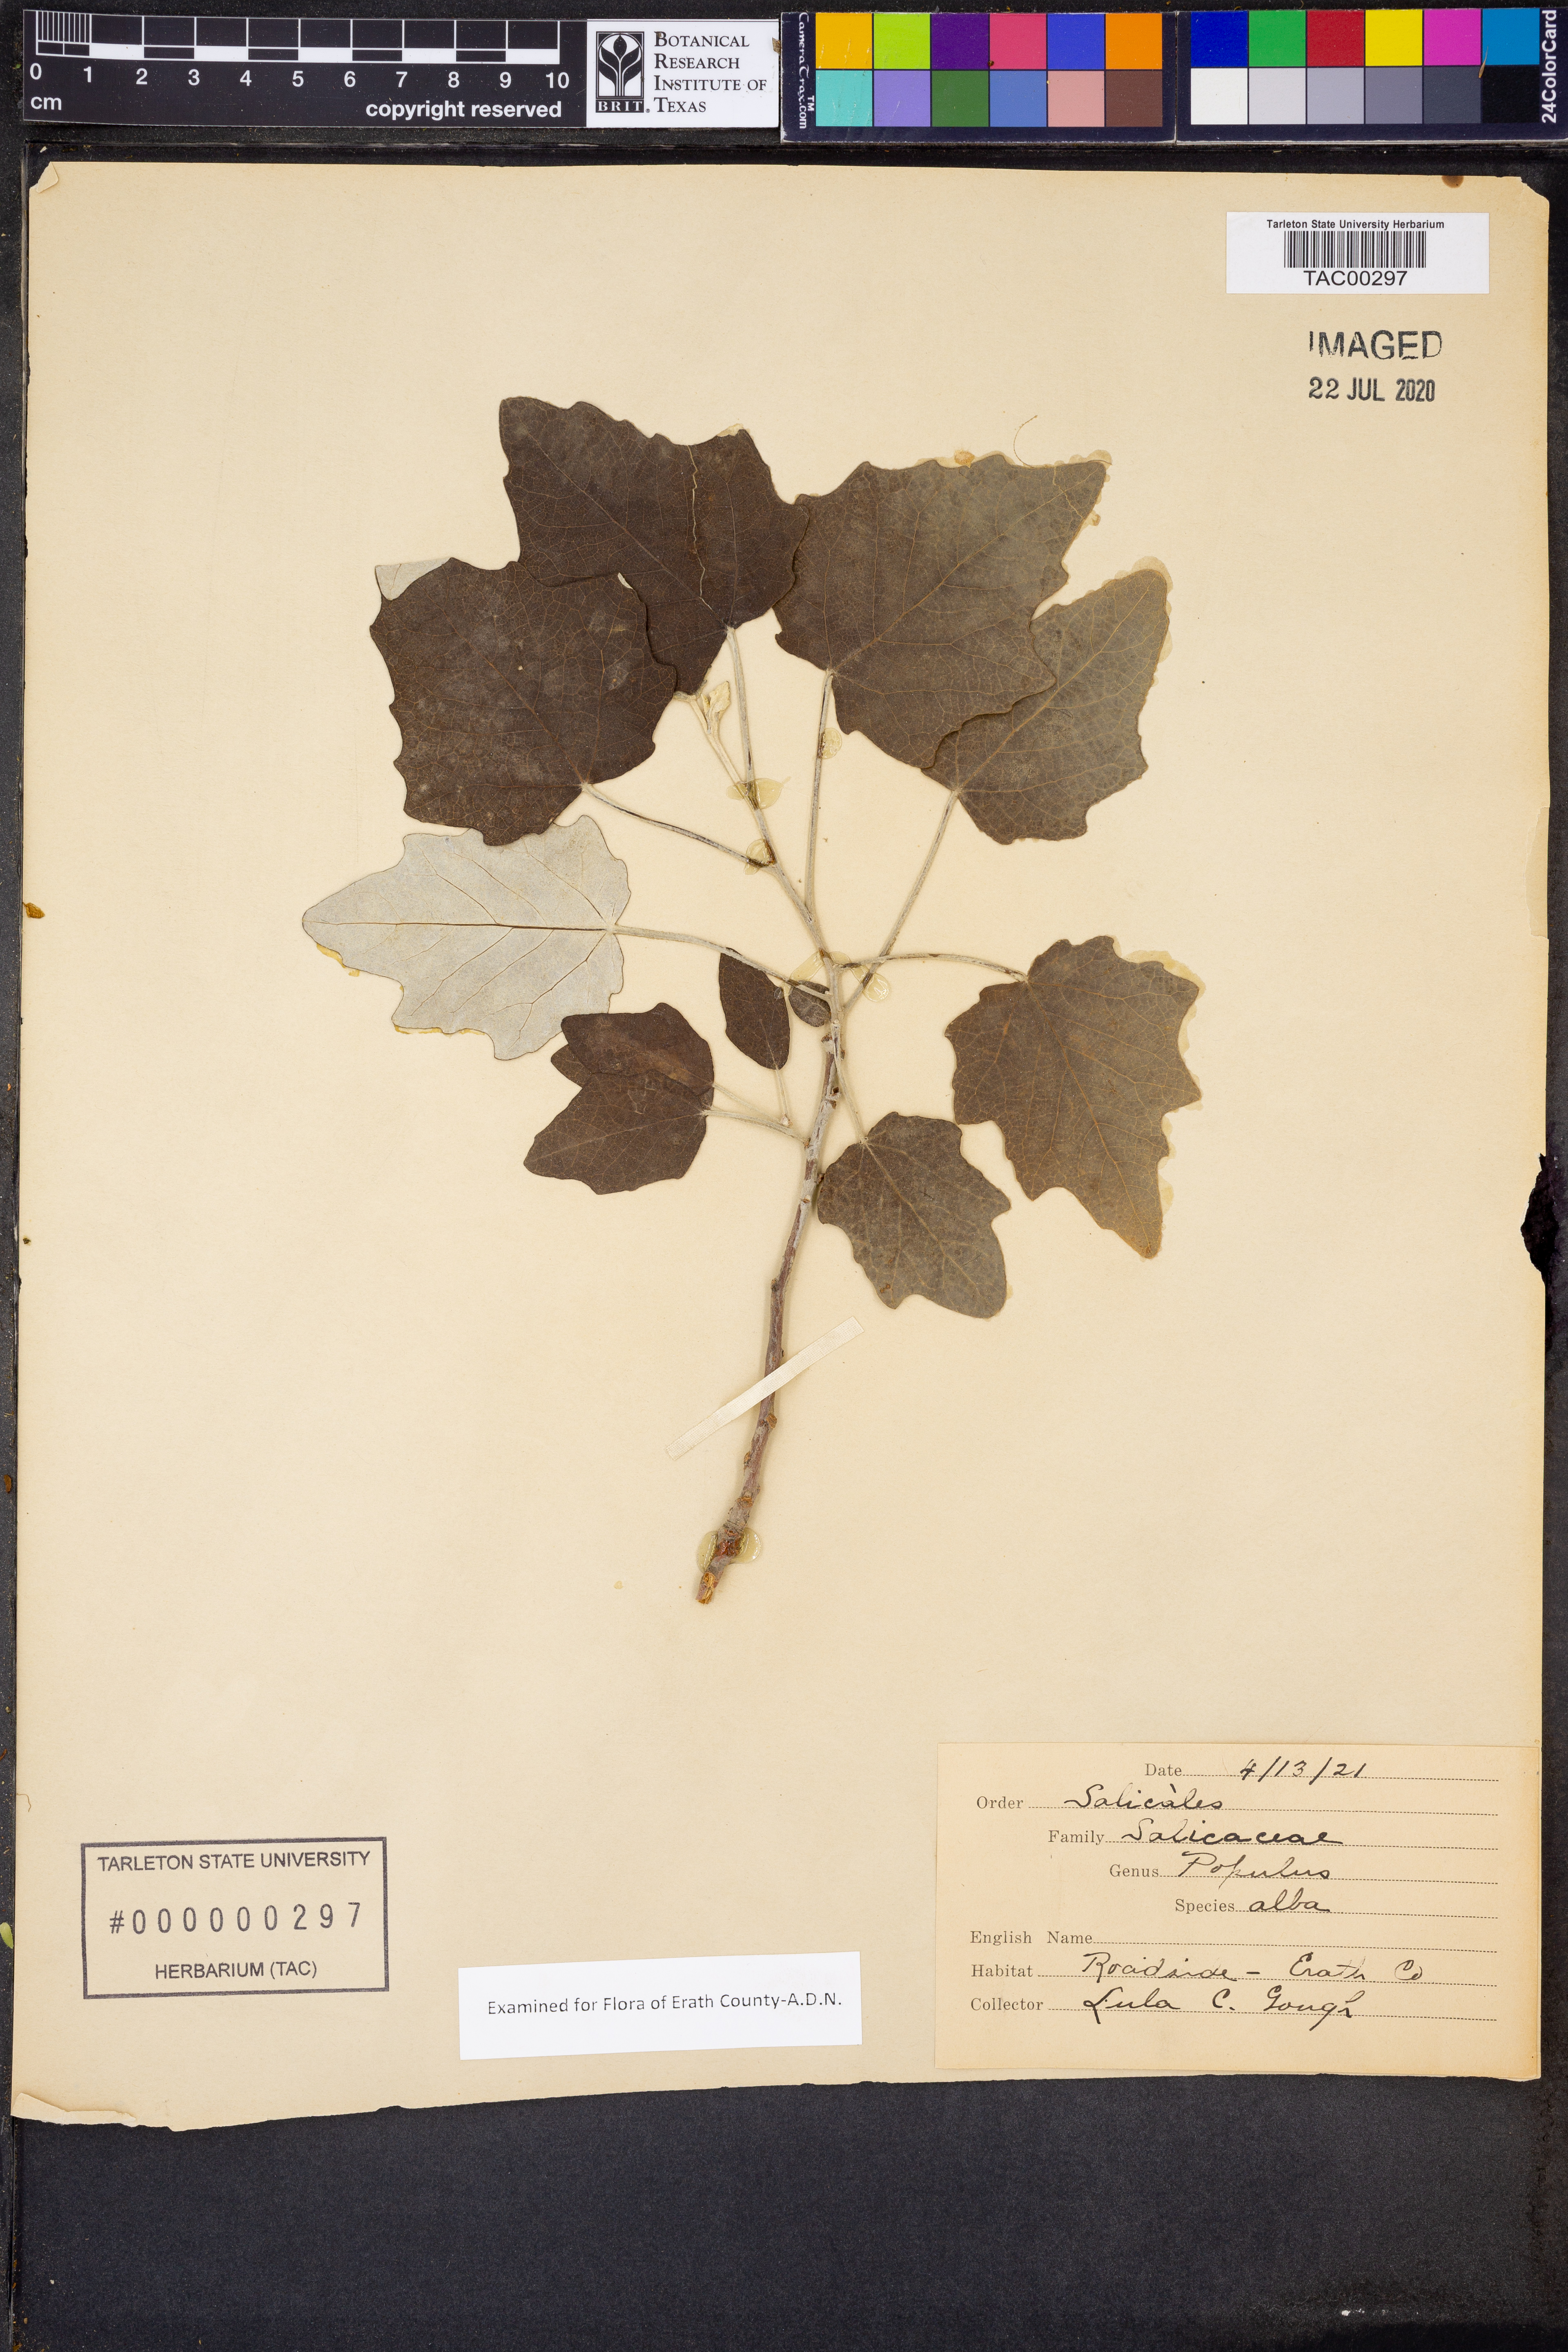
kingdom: Plantae
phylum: Tracheophyta
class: Magnoliopsida
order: Malpighiales
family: Salicaceae
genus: Populus
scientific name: Populus alba
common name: White poplar
